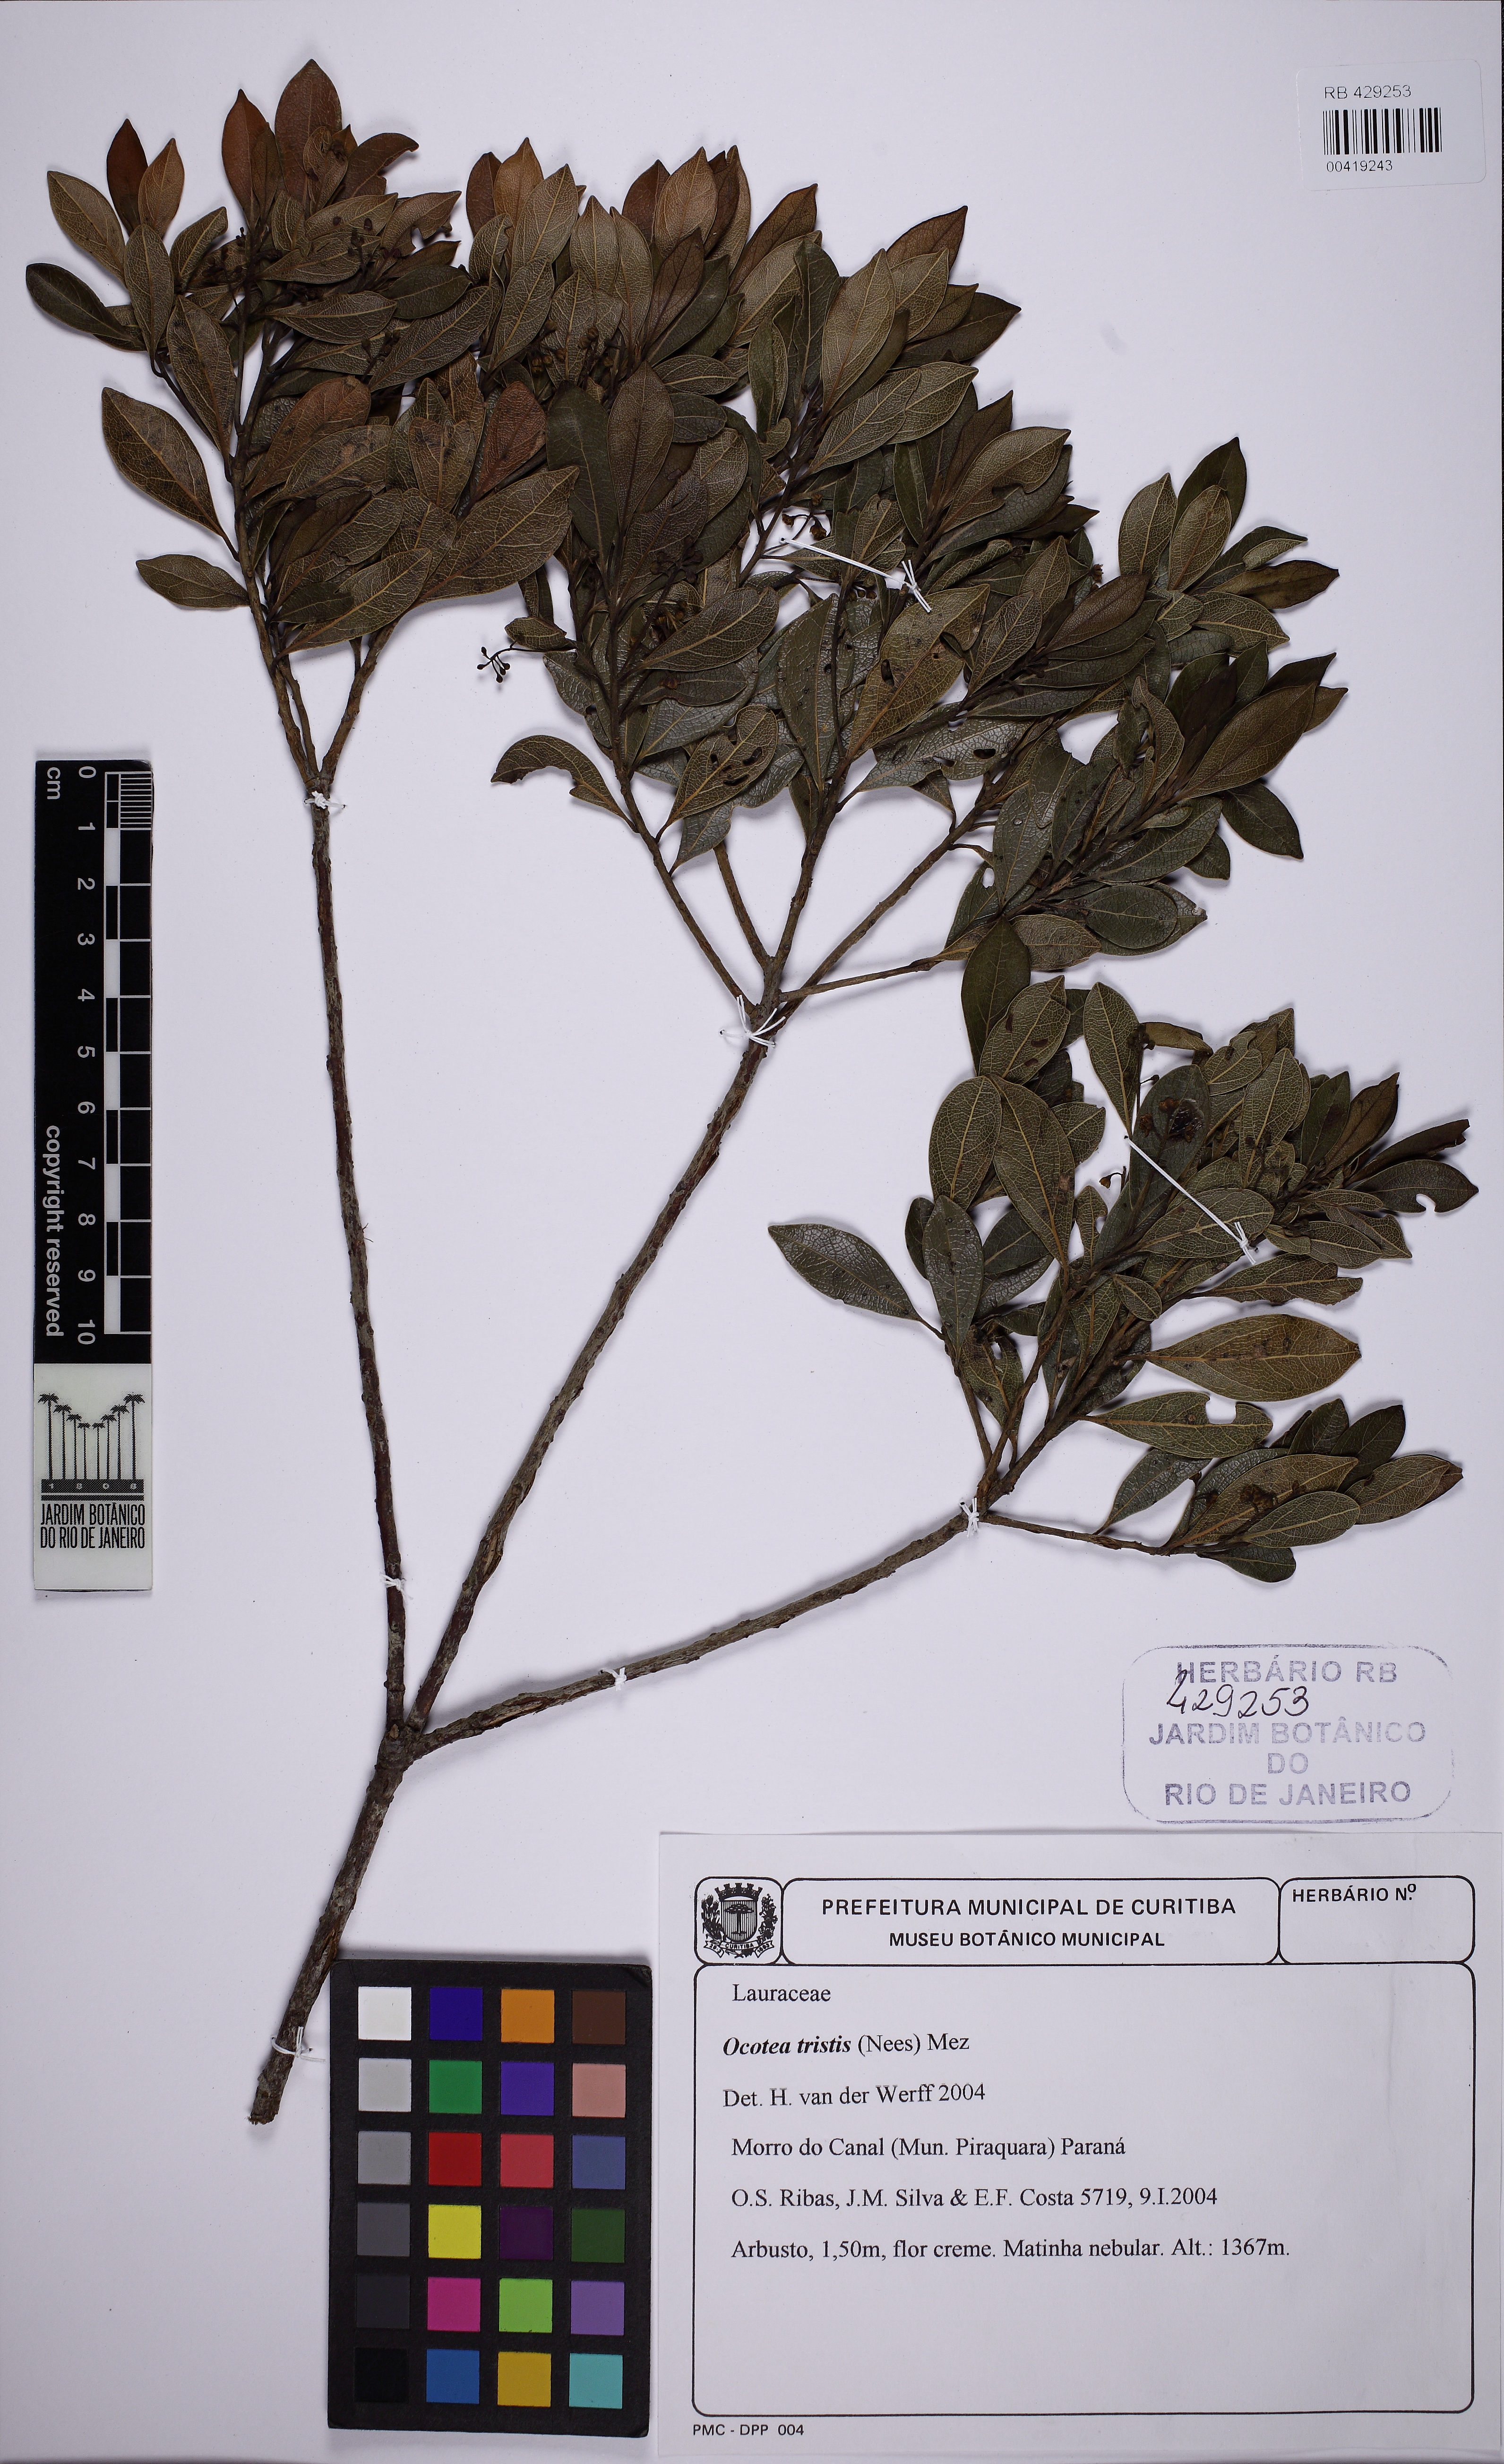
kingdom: Plantae
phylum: Tracheophyta
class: Magnoliopsida
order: Laurales
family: Lauraceae
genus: Mespilodaphne
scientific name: Mespilodaphne tristis
